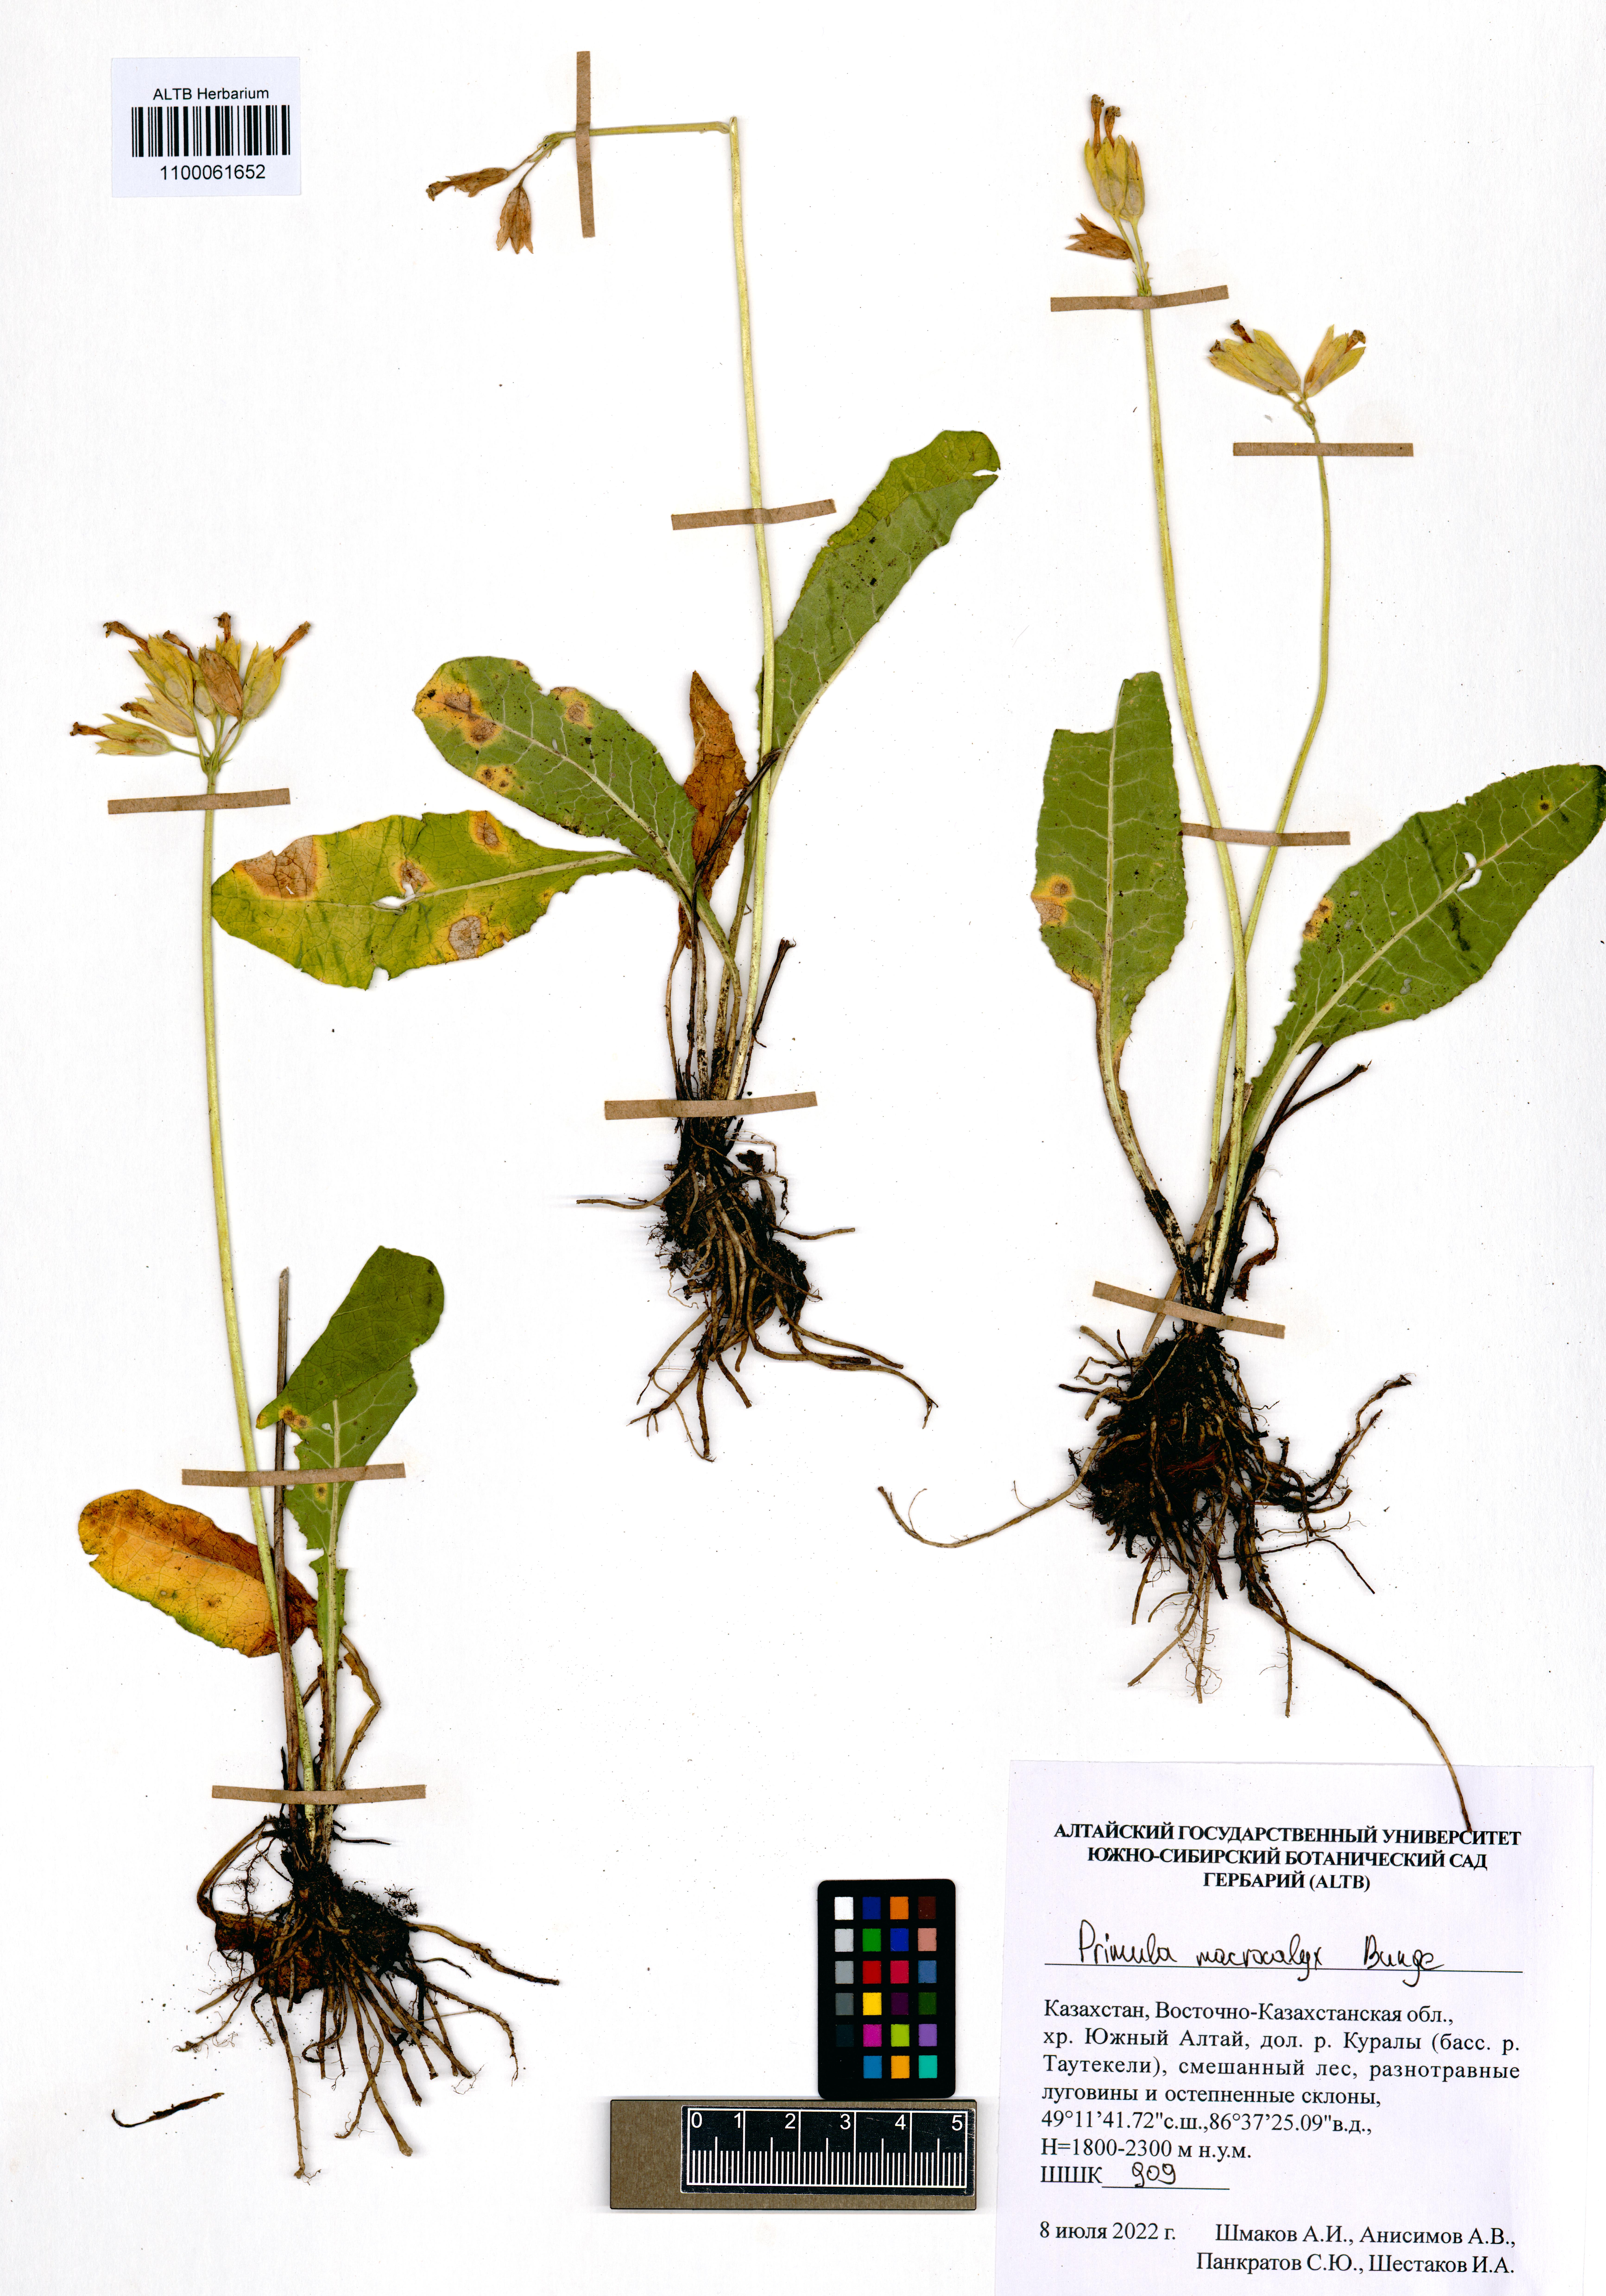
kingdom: Plantae
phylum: Tracheophyta
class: Magnoliopsida
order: Ericales
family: Primulaceae
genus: Primula
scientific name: Primula veris
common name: Cowslip
